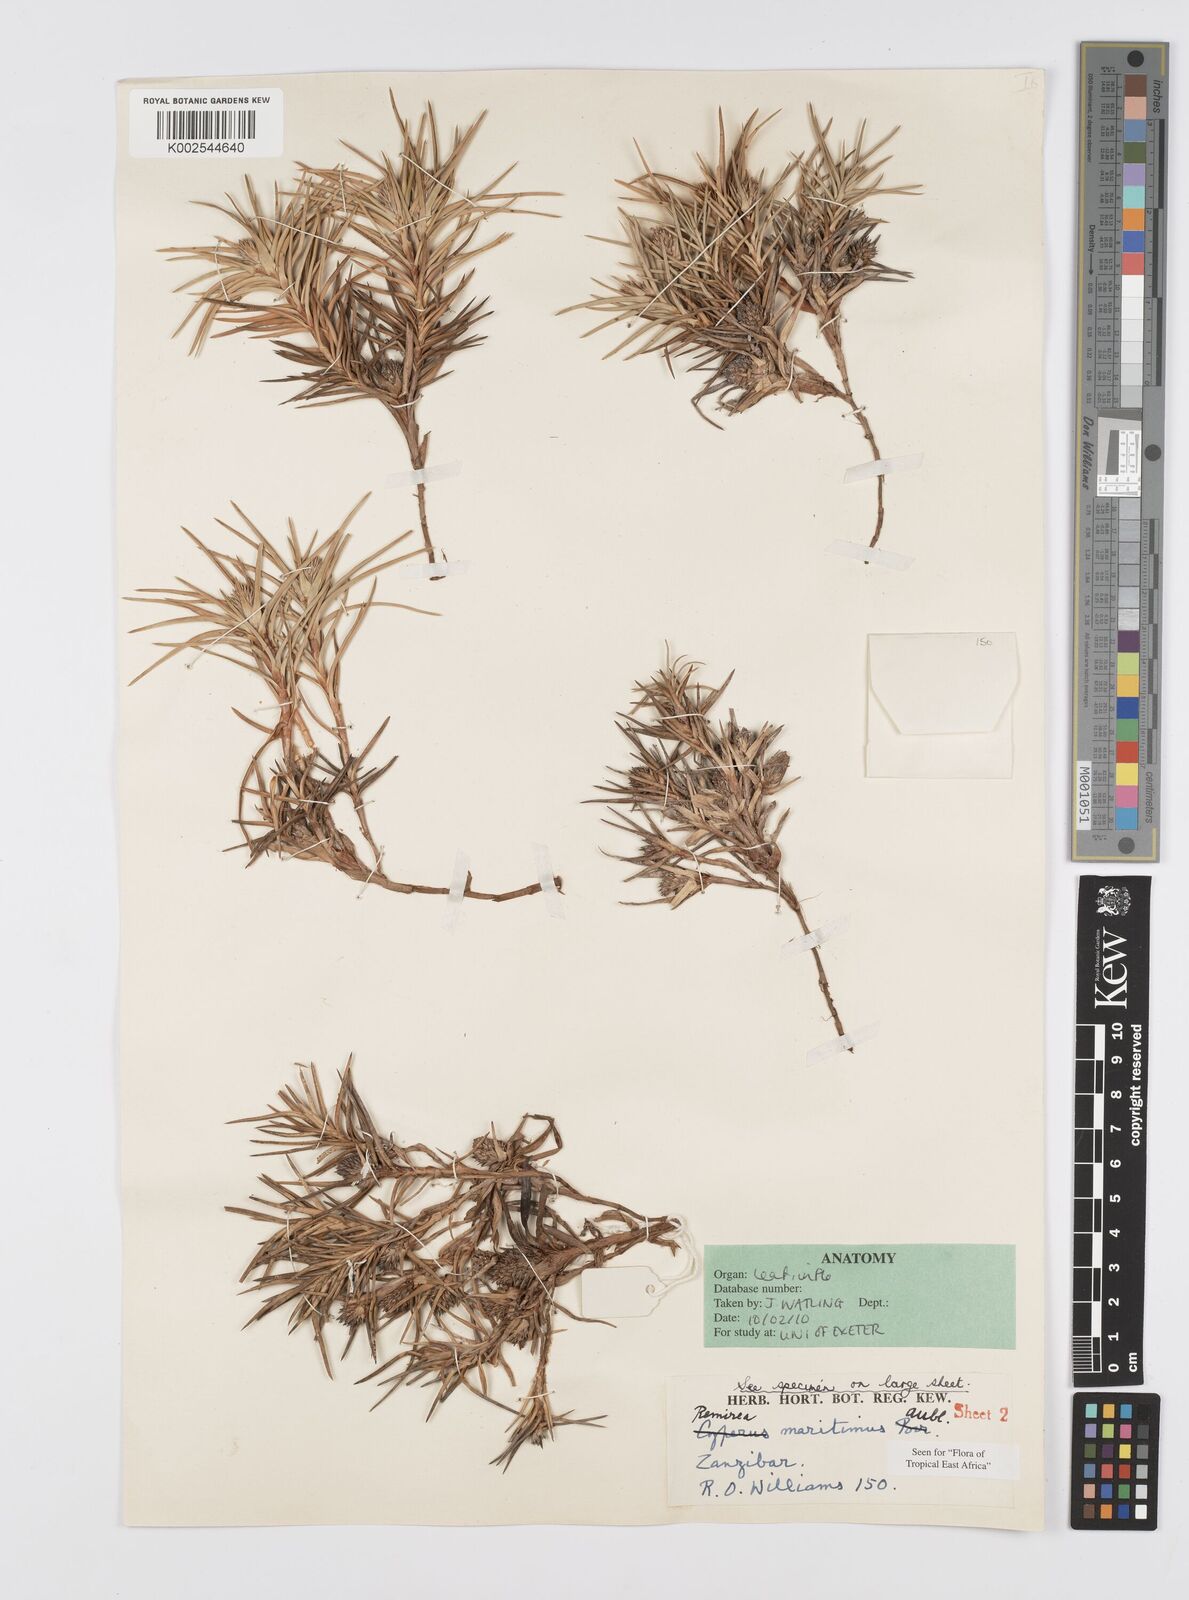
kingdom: Plantae
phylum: Tracheophyta
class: Liliopsida
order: Poales
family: Cyperaceae
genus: Cyperus
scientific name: Cyperus
